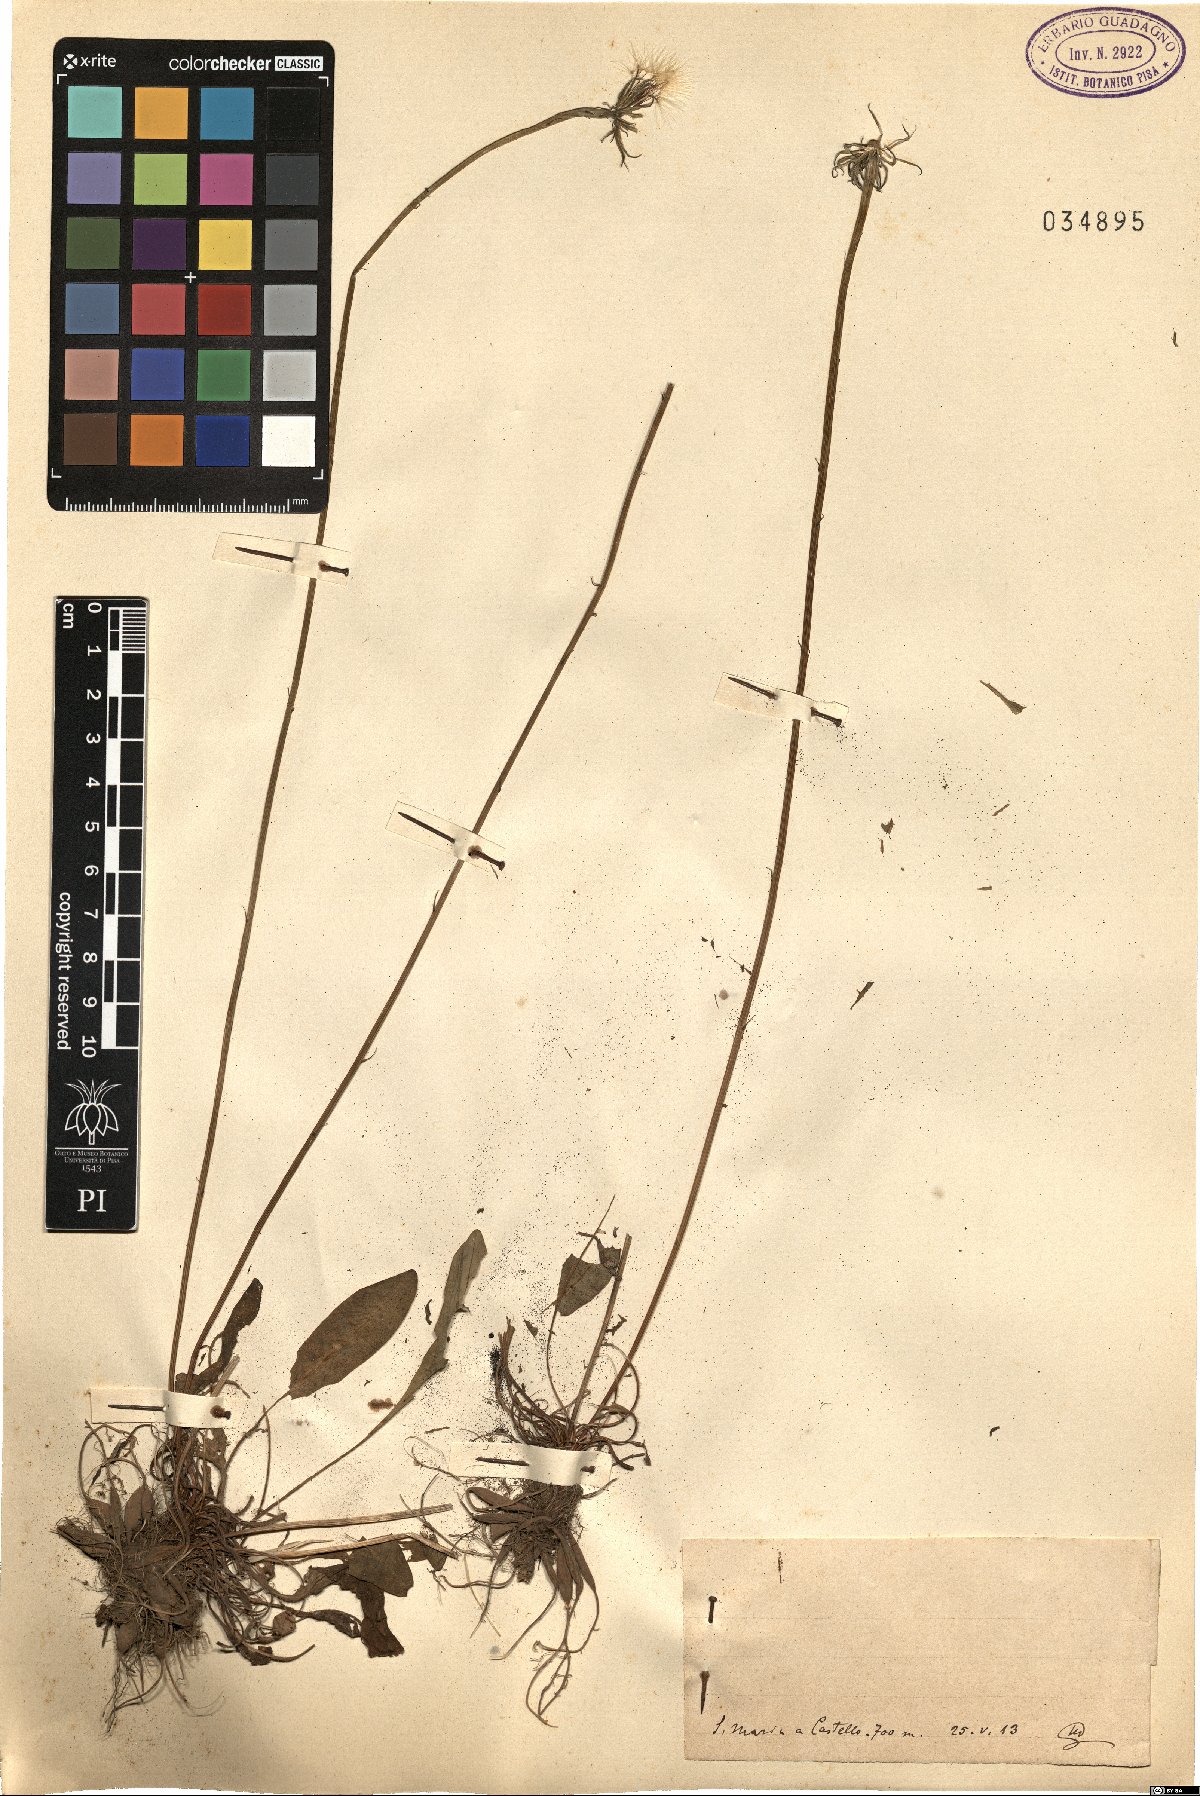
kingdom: Plantae
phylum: Tracheophyta
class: Magnoliopsida
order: Asterales
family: Asteraceae
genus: Leontodon
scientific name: Leontodon
